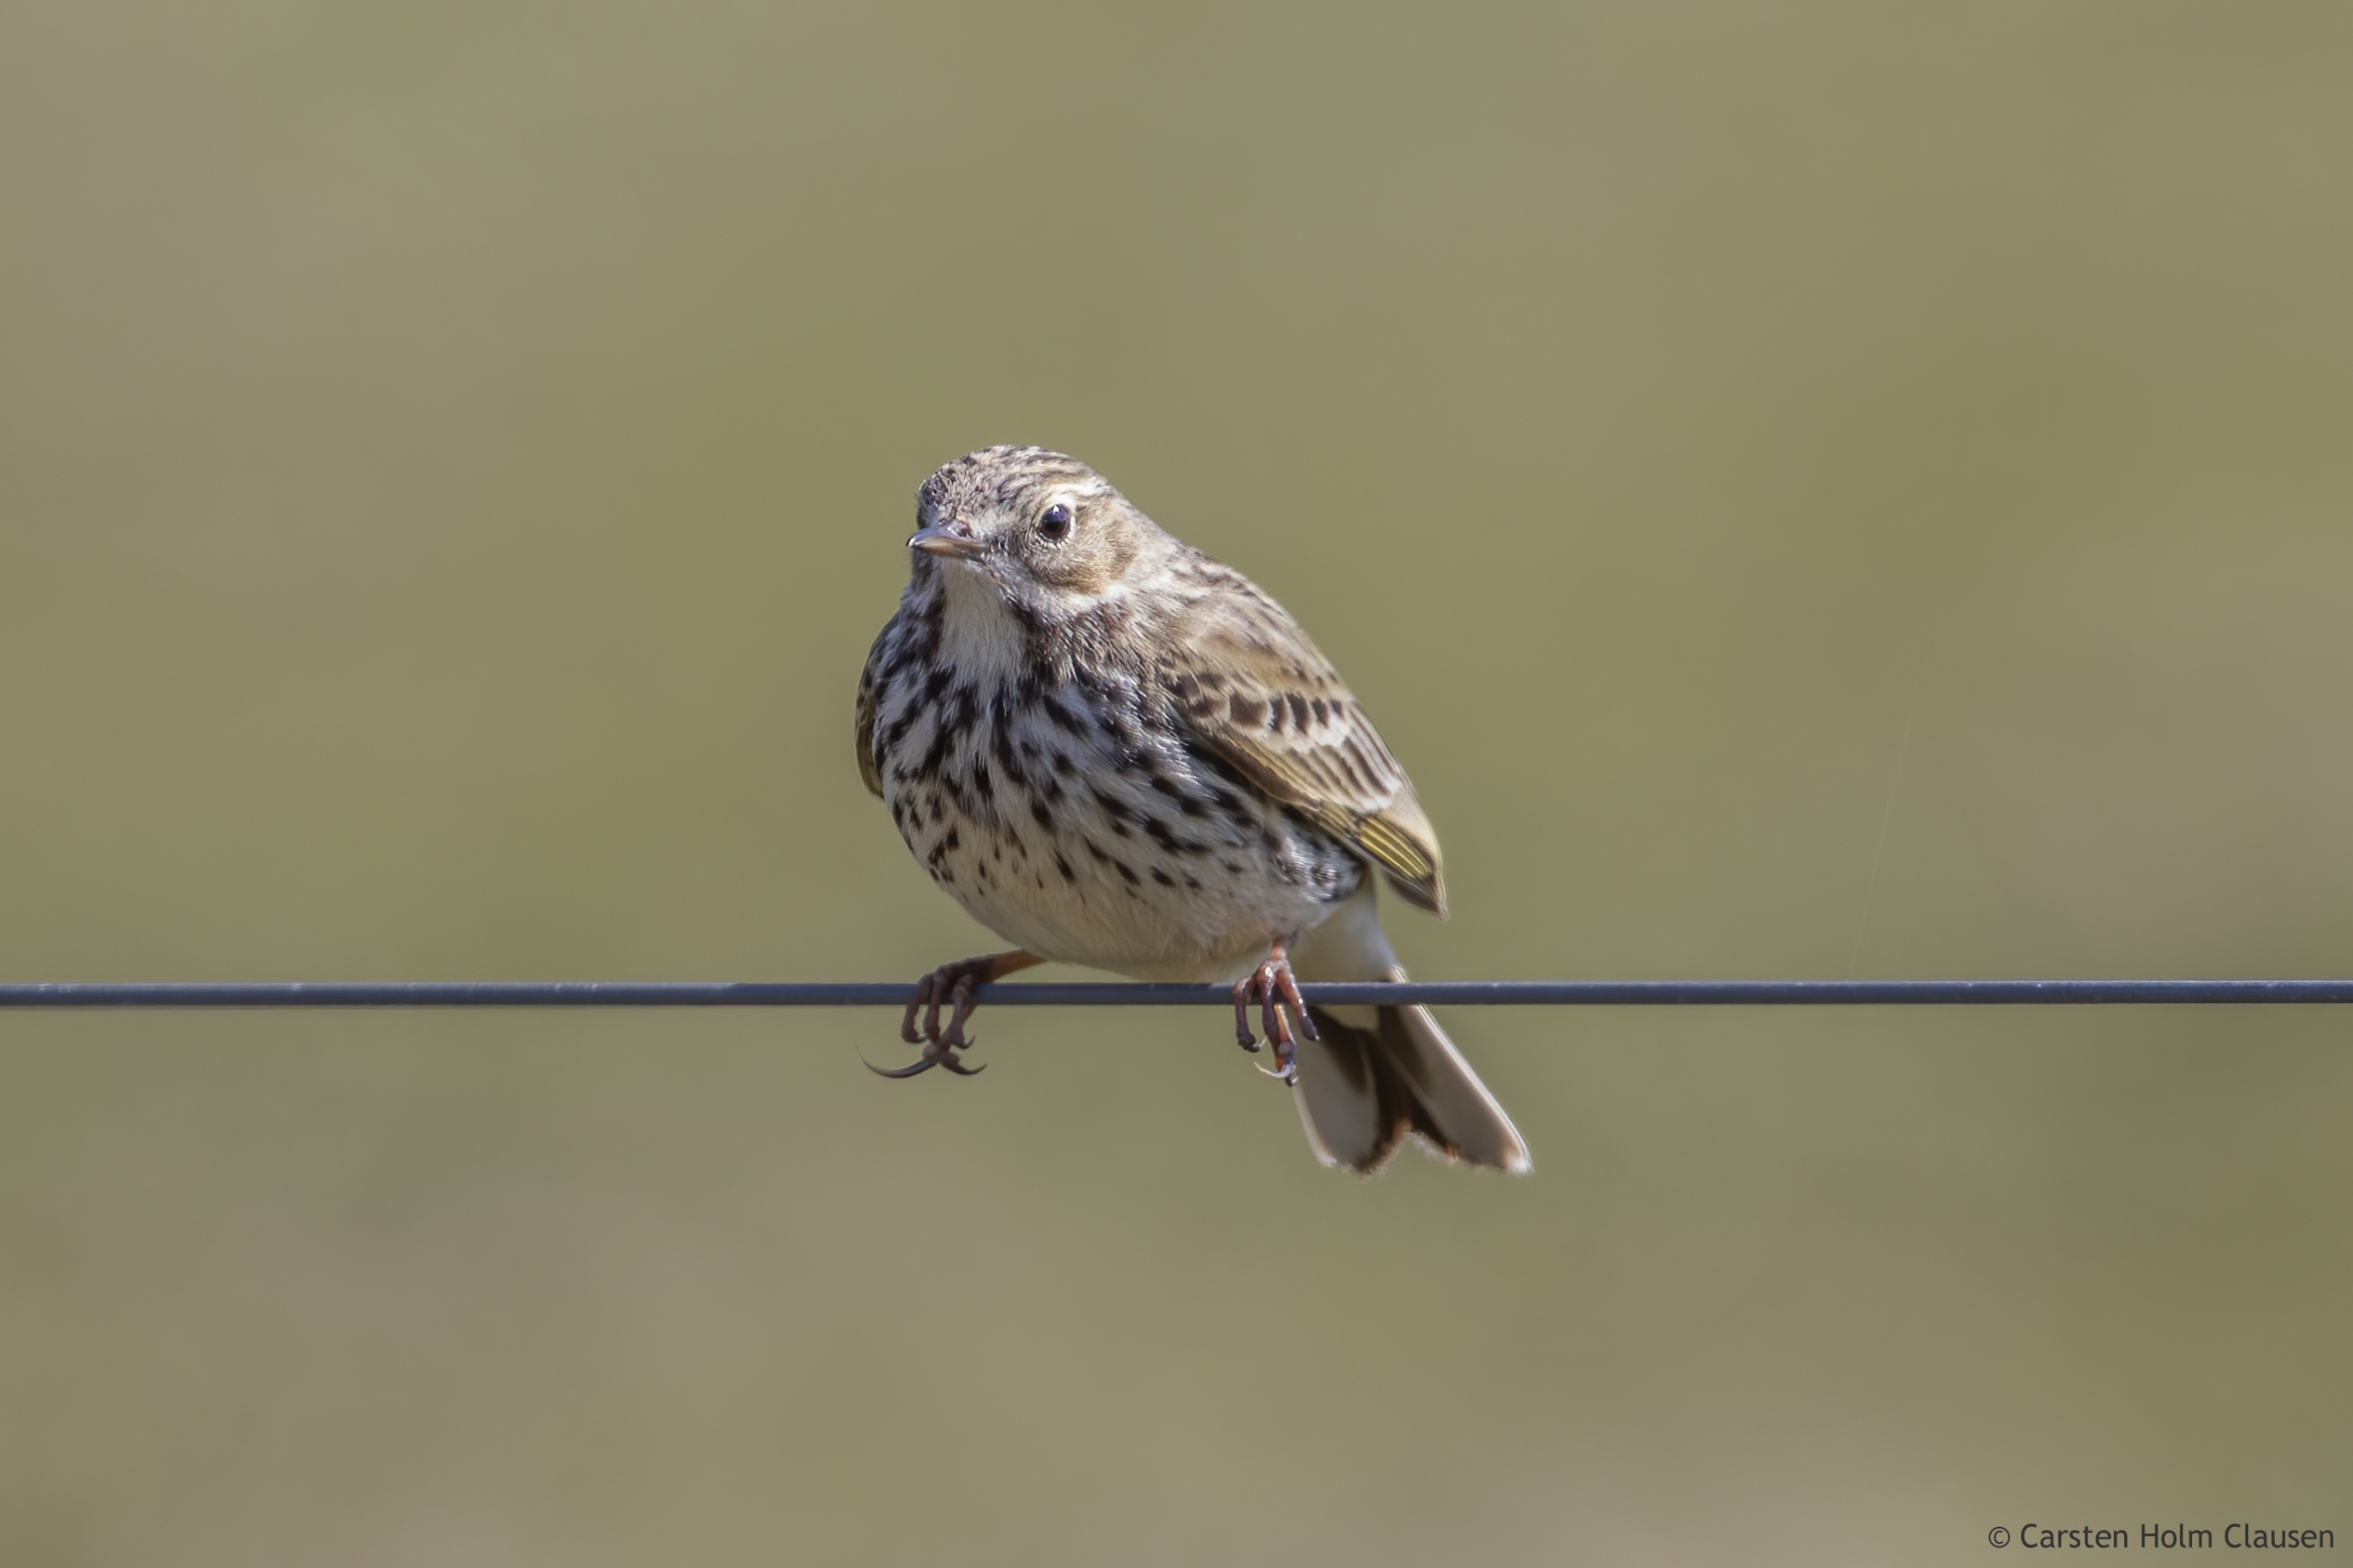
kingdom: Animalia
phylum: Chordata
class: Aves
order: Passeriformes
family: Motacillidae
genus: Anthus
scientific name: Anthus pratensis
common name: Engpiber
